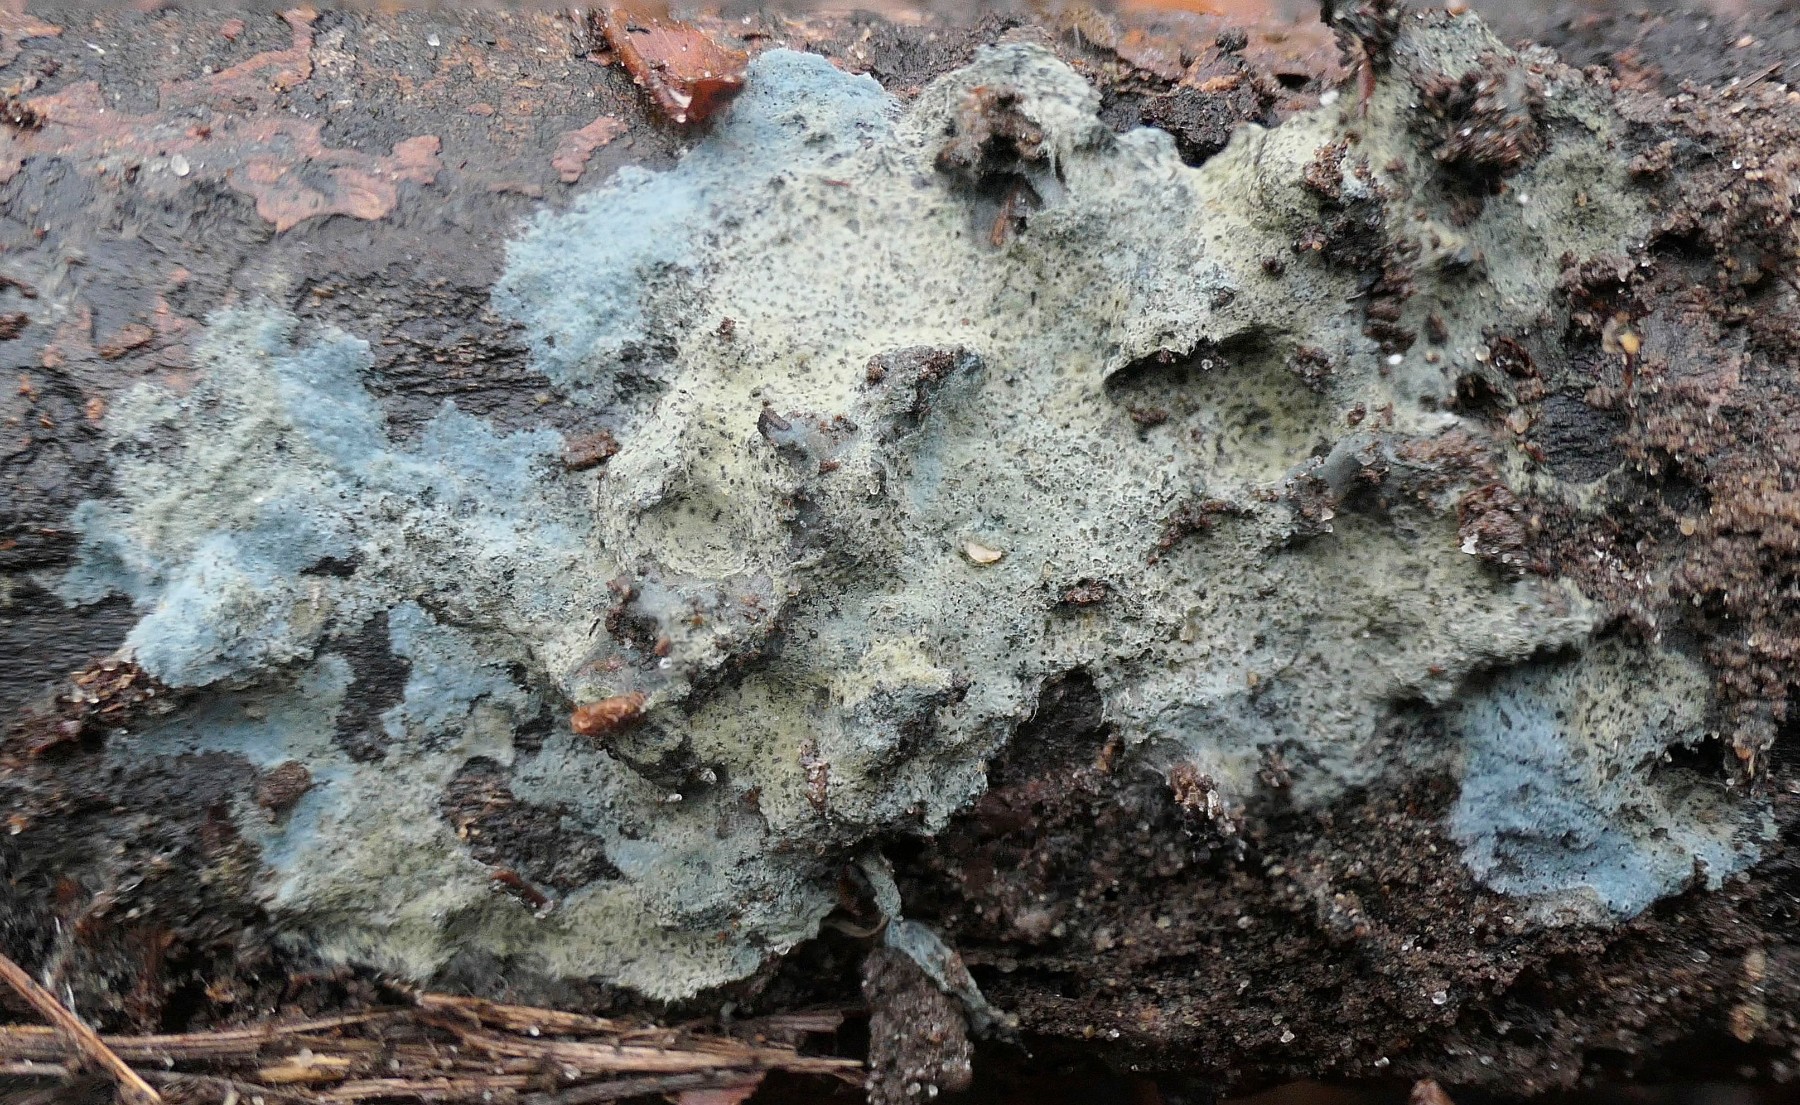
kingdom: Fungi
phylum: Basidiomycota
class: Agaricomycetes
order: Atheliales
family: Atheliaceae
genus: Byssocorticium
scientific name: Byssocorticium
